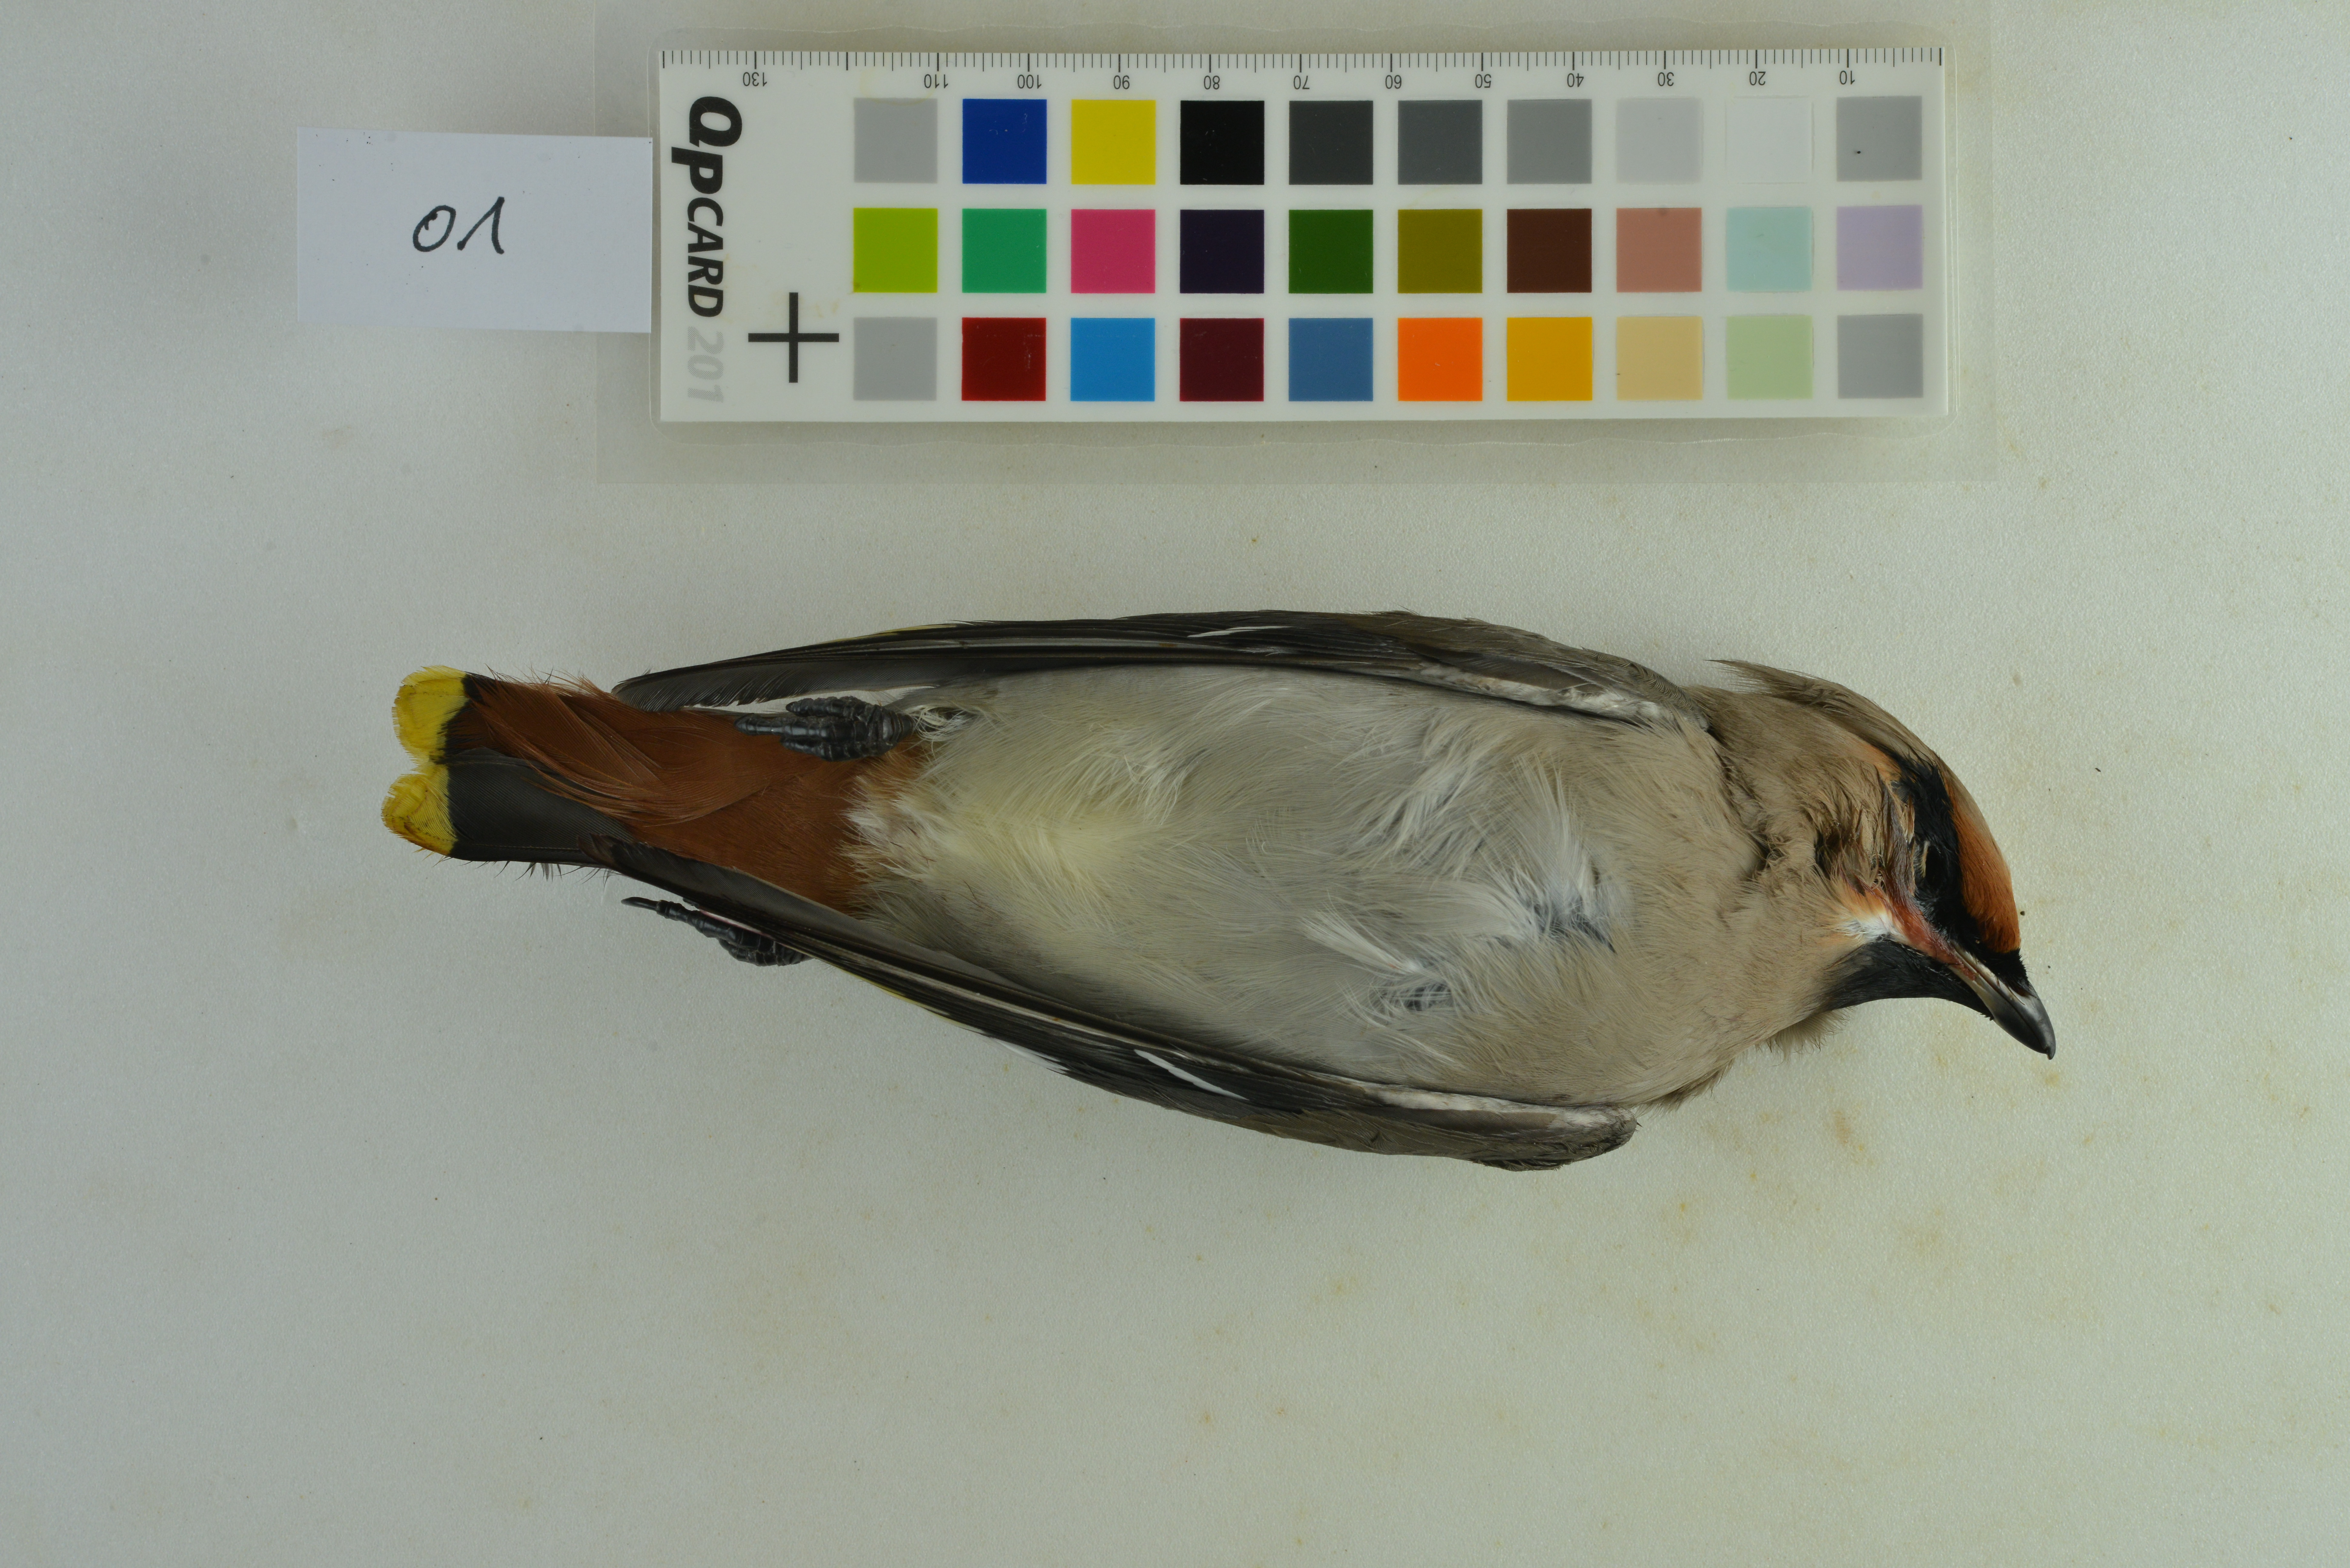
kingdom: Animalia
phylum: Chordata
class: Aves
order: Passeriformes
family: Bombycillidae
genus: Bombycilla
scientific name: Bombycilla garrulus
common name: Bohemian waxwing
